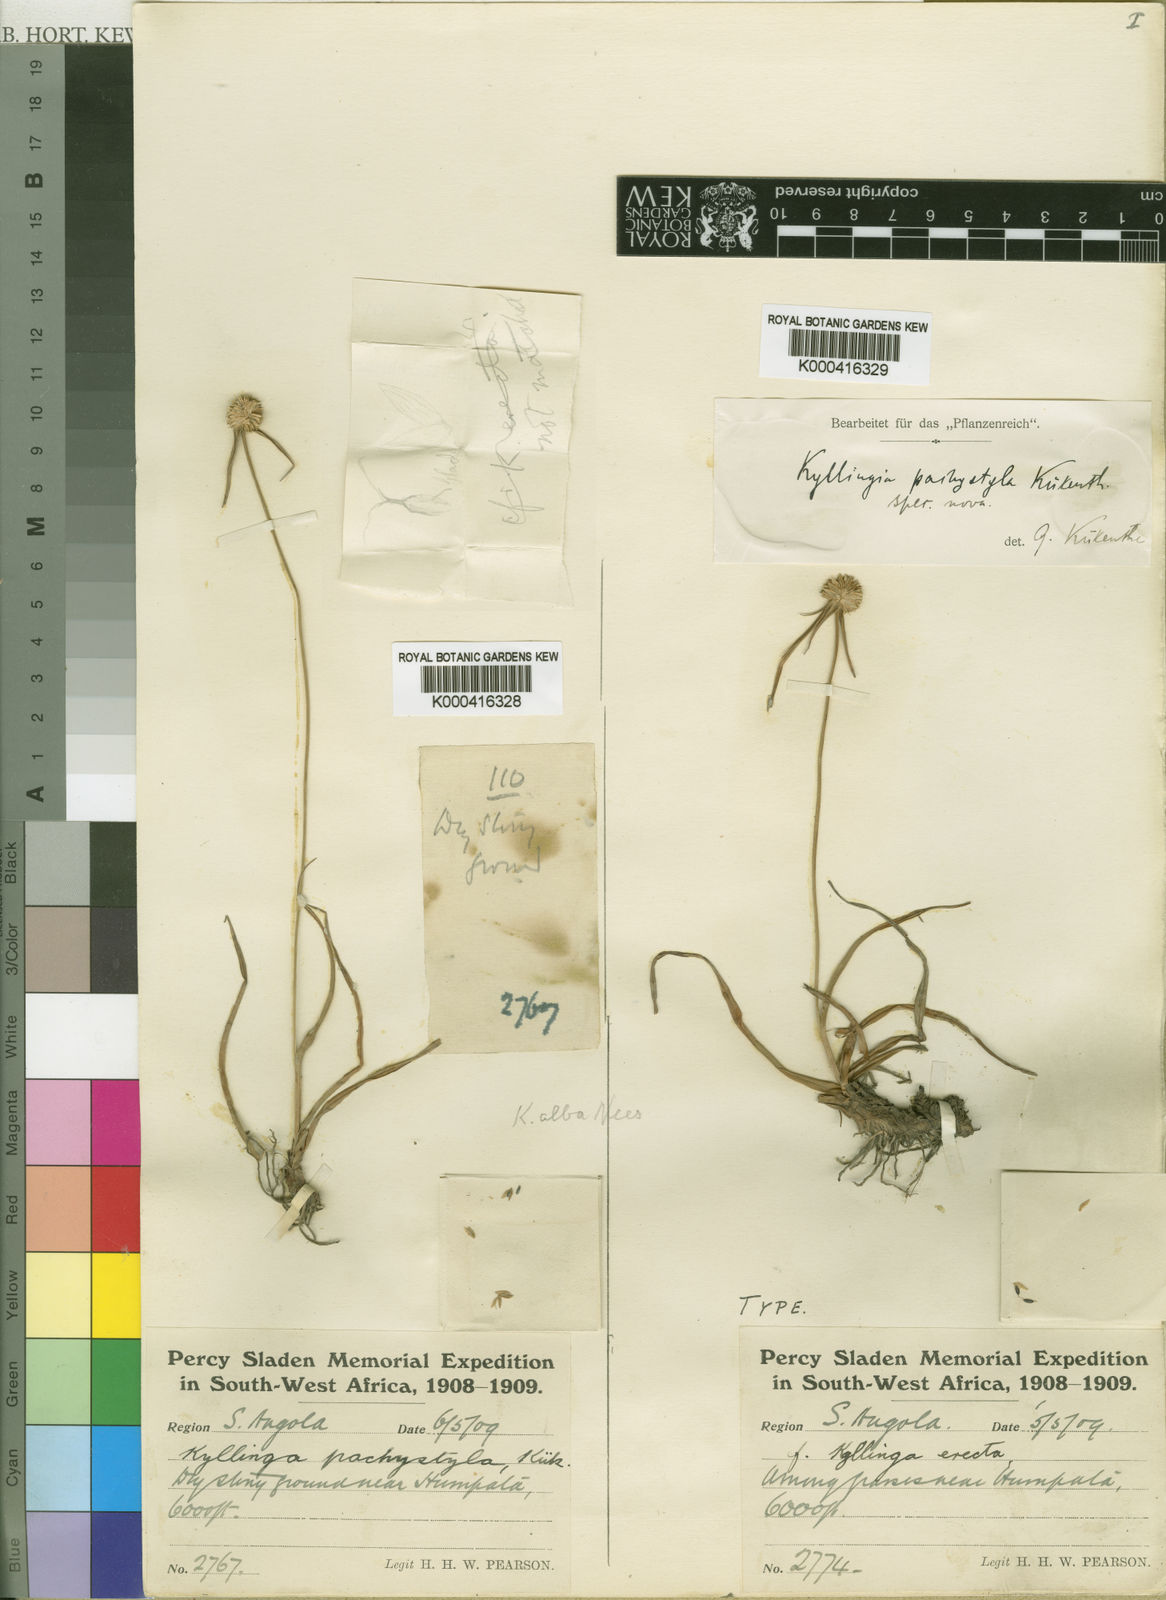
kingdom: Plantae
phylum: Tracheophyta
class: Liliopsida
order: Poales
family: Cyperaceae
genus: Cyperus
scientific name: Cyperus
